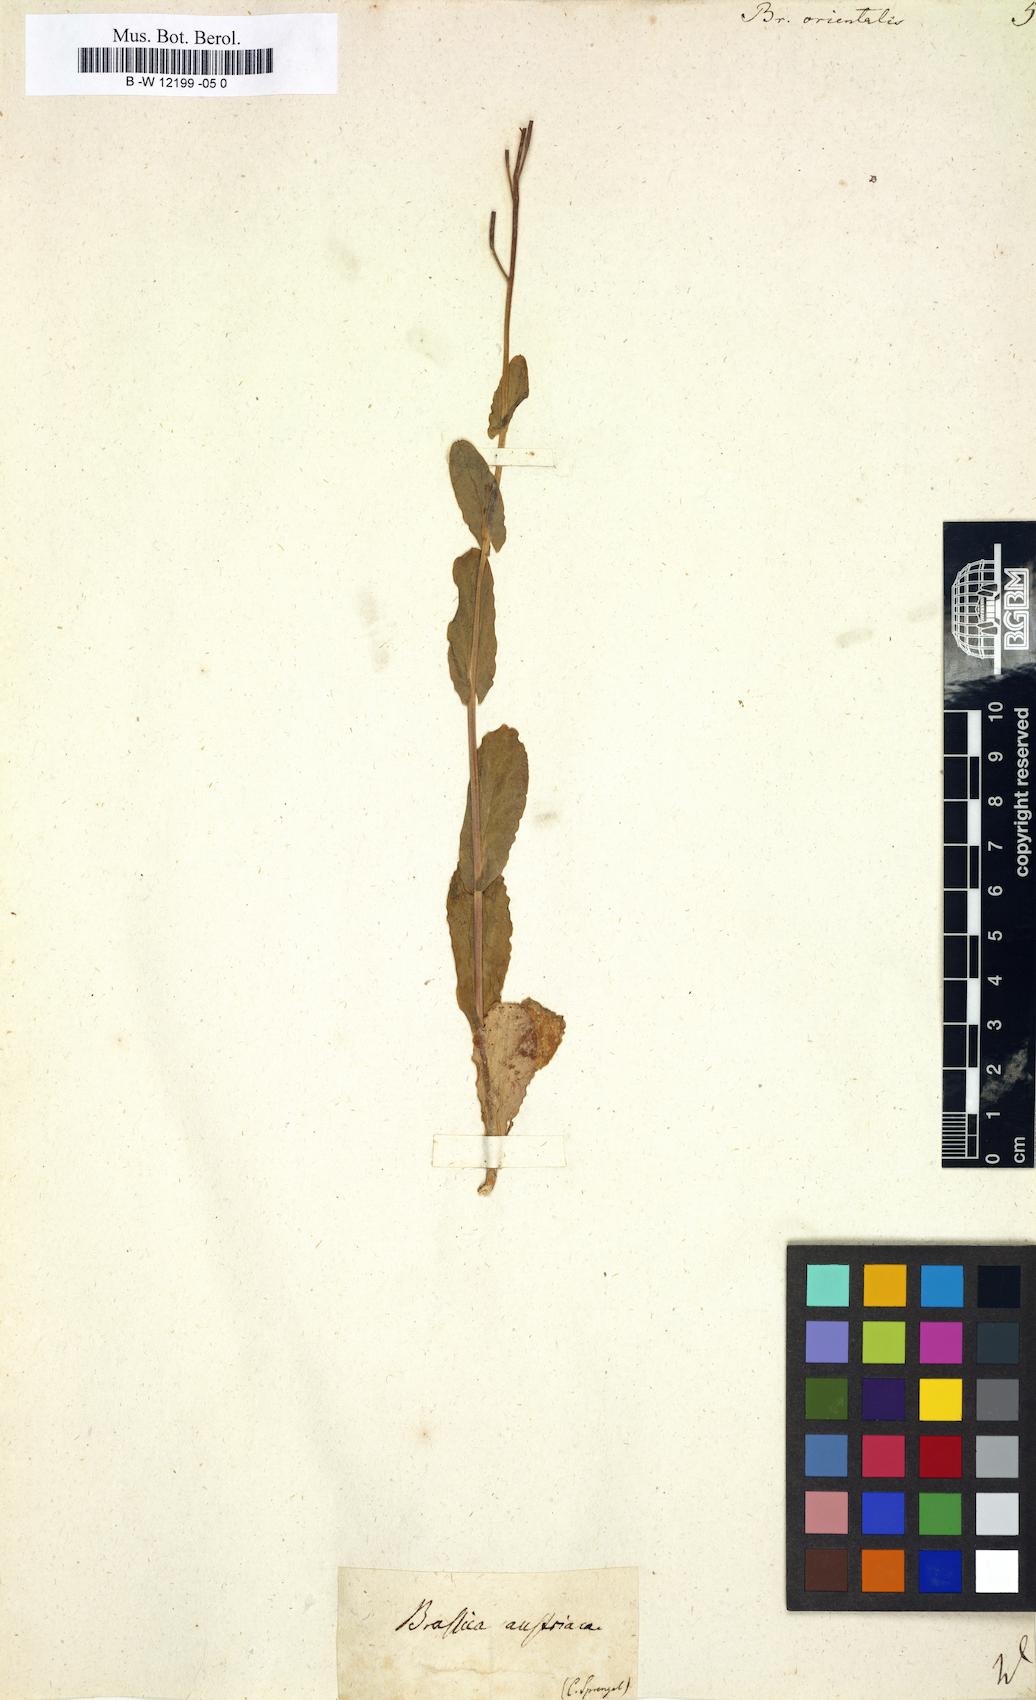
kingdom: Plantae
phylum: Tracheophyta
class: Magnoliopsida
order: Brassicales
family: Brassicaceae
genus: Conringia
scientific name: Conringia orientalis
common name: Hare's ear mustard
